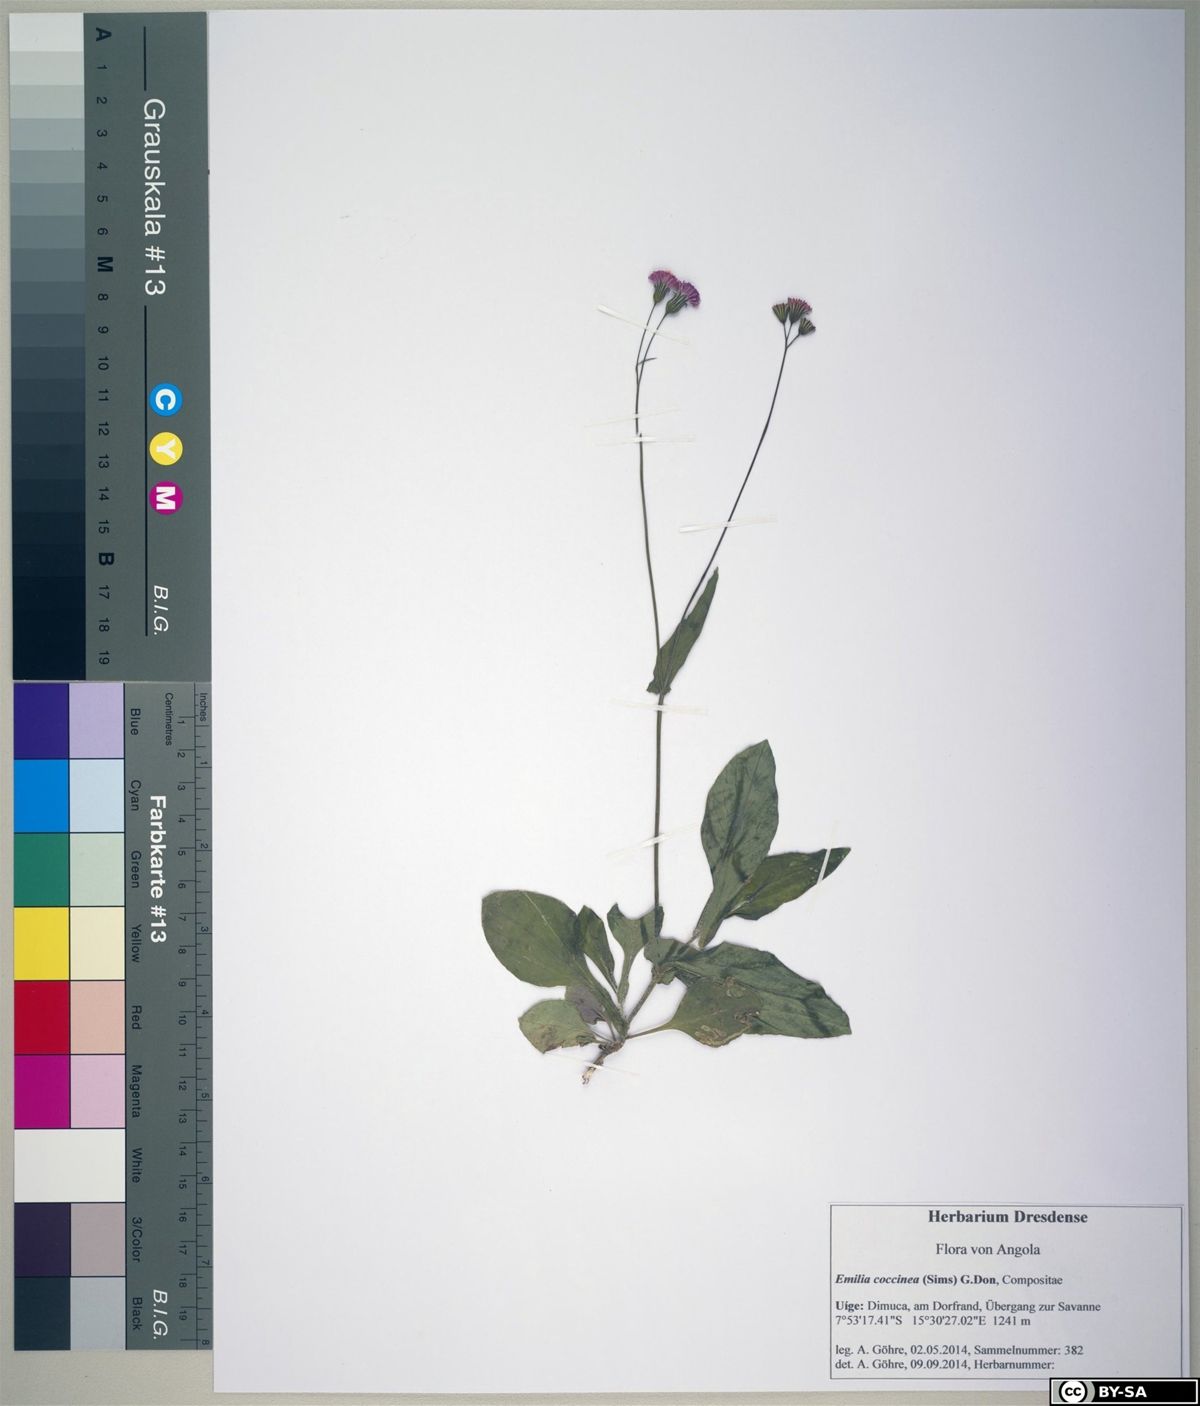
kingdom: Plantae
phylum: Tracheophyta
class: Magnoliopsida
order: Asterales
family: Asteraceae
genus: Emilia
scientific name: Emilia coccinea
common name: Scarlet tasselflower
